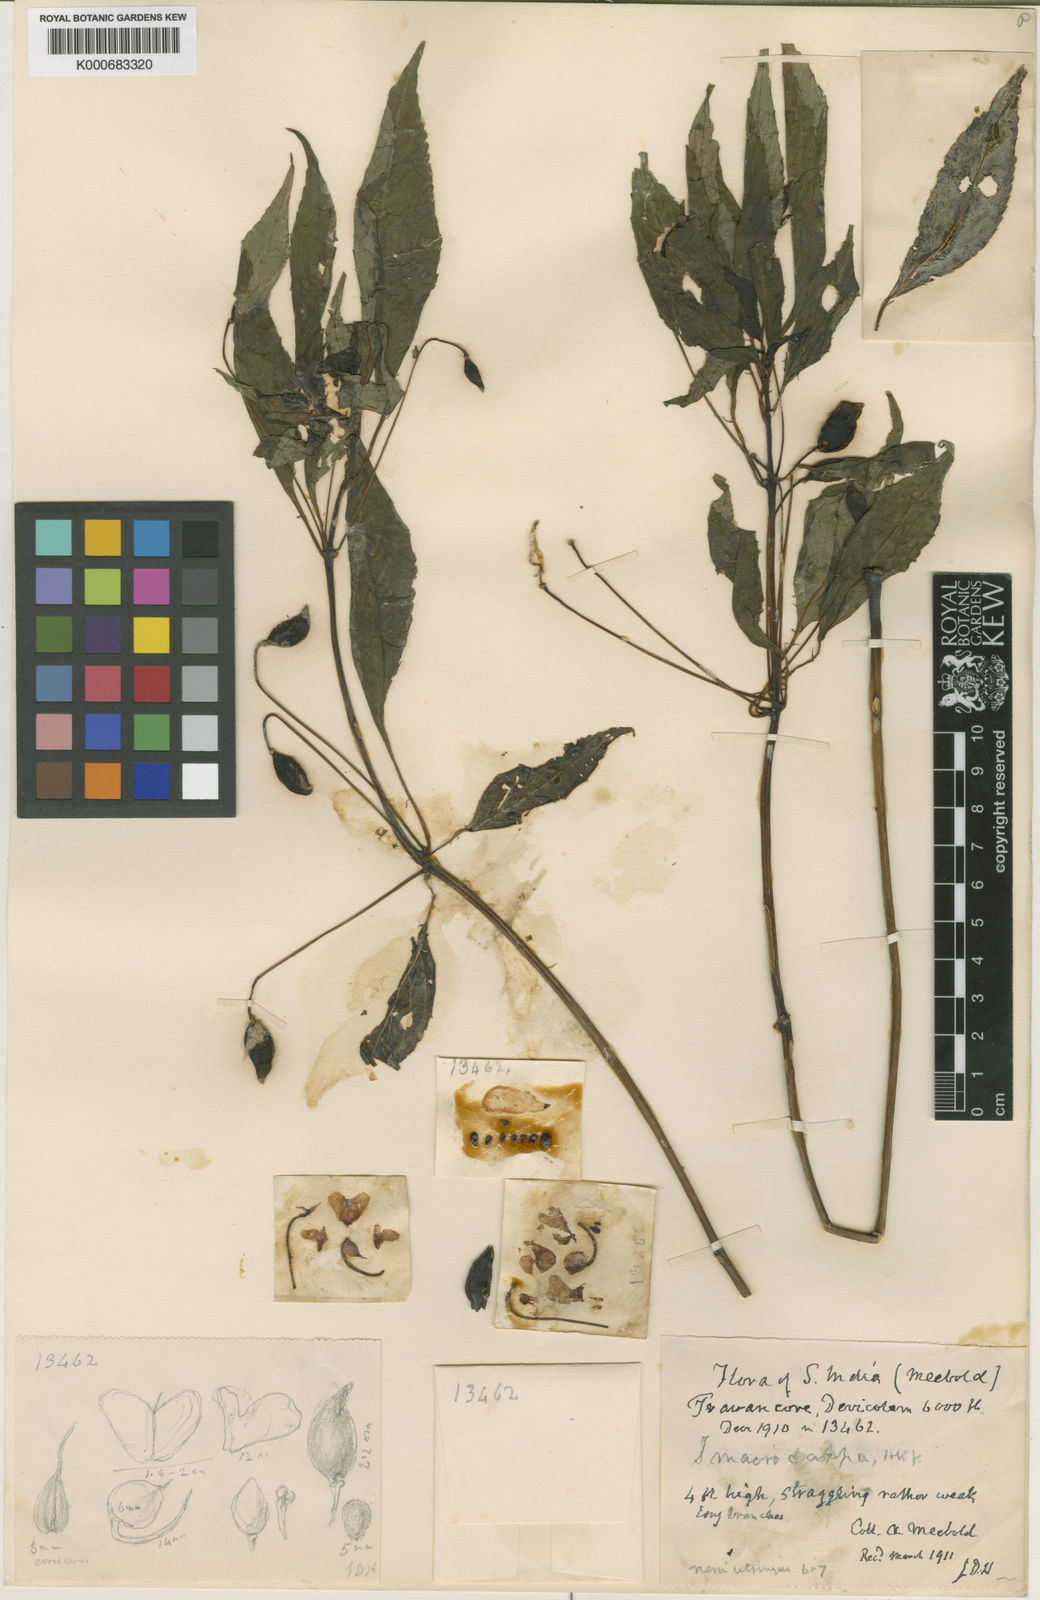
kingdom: Plantae
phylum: Tracheophyta
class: Magnoliopsida
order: Ericales
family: Balsaminaceae
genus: Impatiens
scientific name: Impatiens macrocarpa
